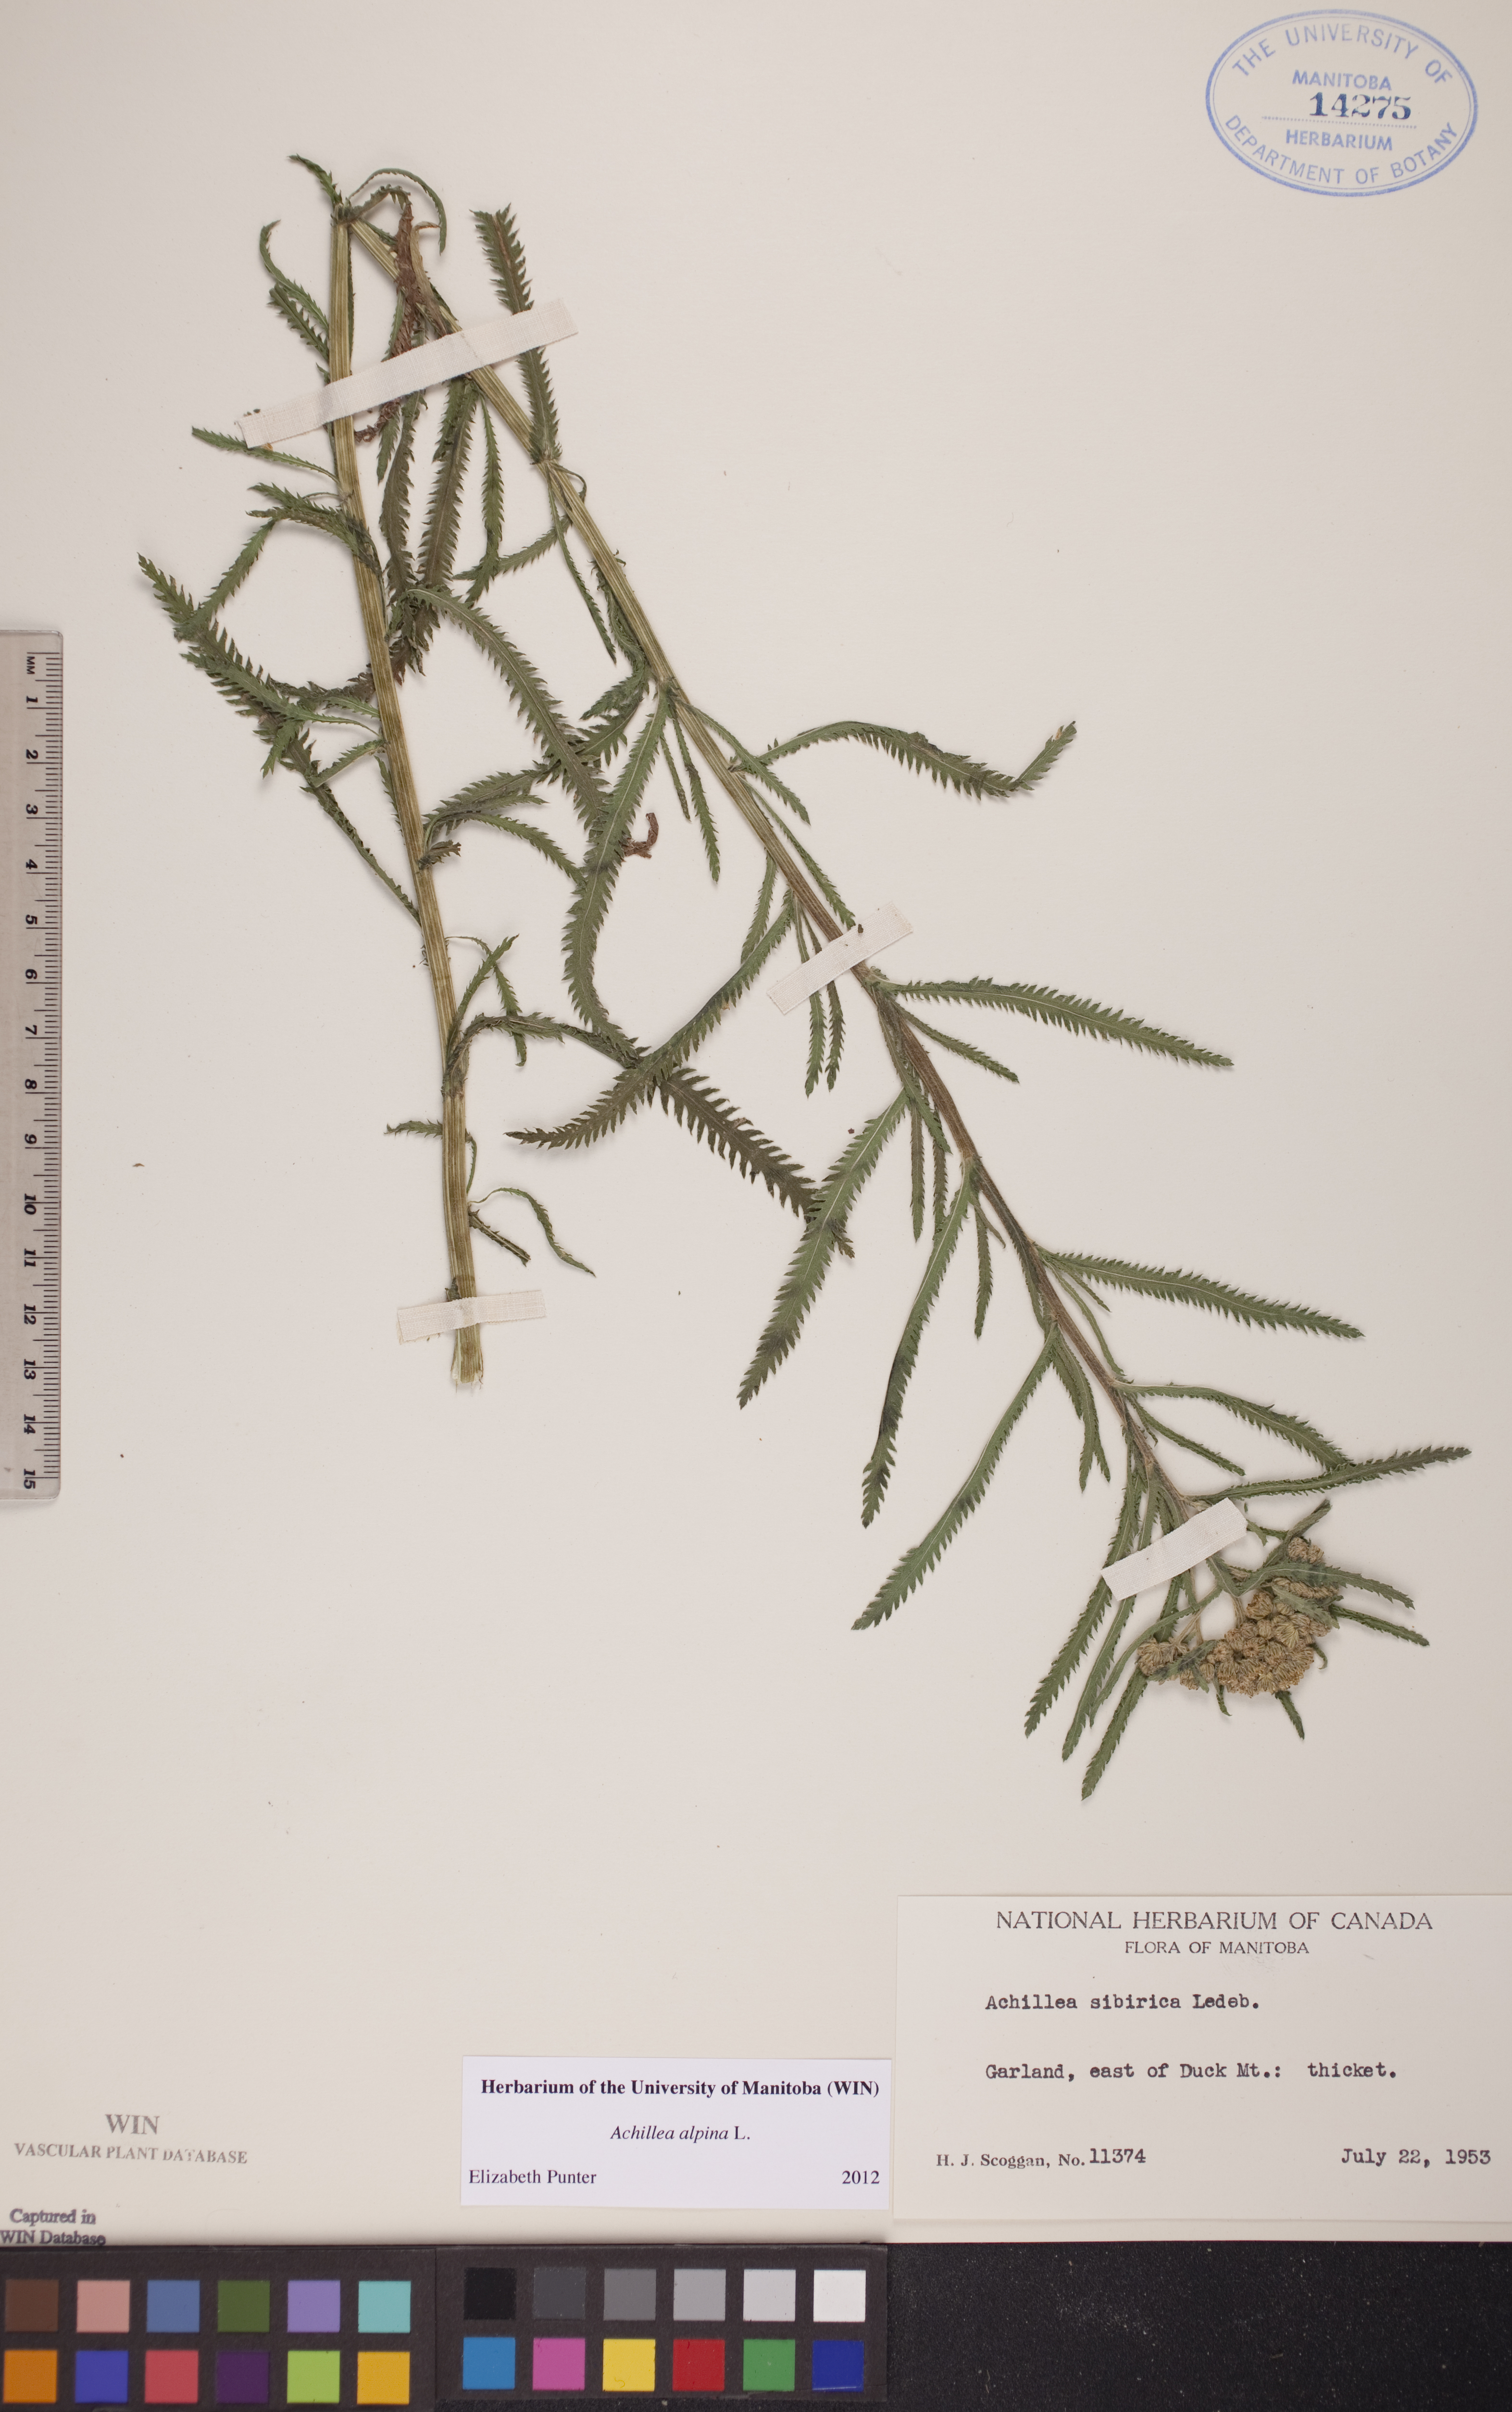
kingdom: Plantae
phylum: Tracheophyta
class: Magnoliopsida
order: Asterales
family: Asteraceae
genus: Achillea
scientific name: Achillea alpina
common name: Siberian yarrow
